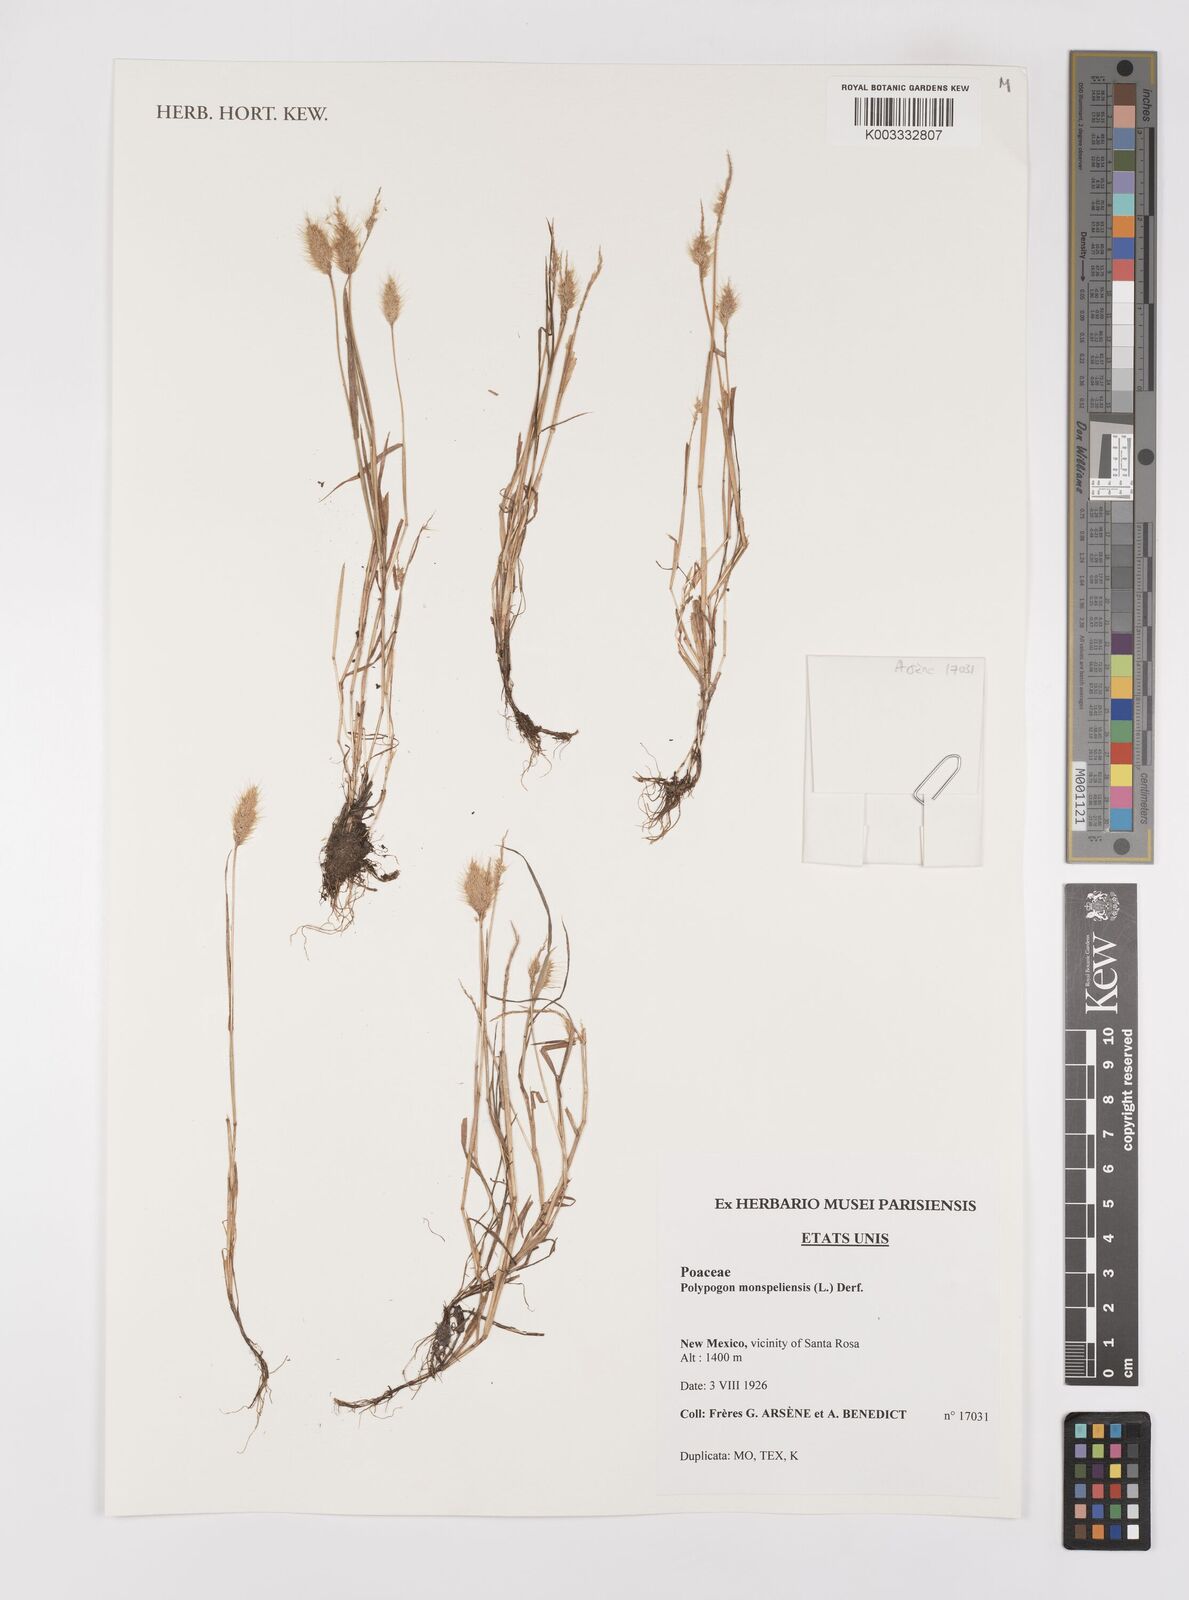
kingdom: Plantae
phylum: Tracheophyta
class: Liliopsida
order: Poales
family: Poaceae
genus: Polypogon
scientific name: Polypogon monspeliensis
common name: Annual rabbitsfoot grass
